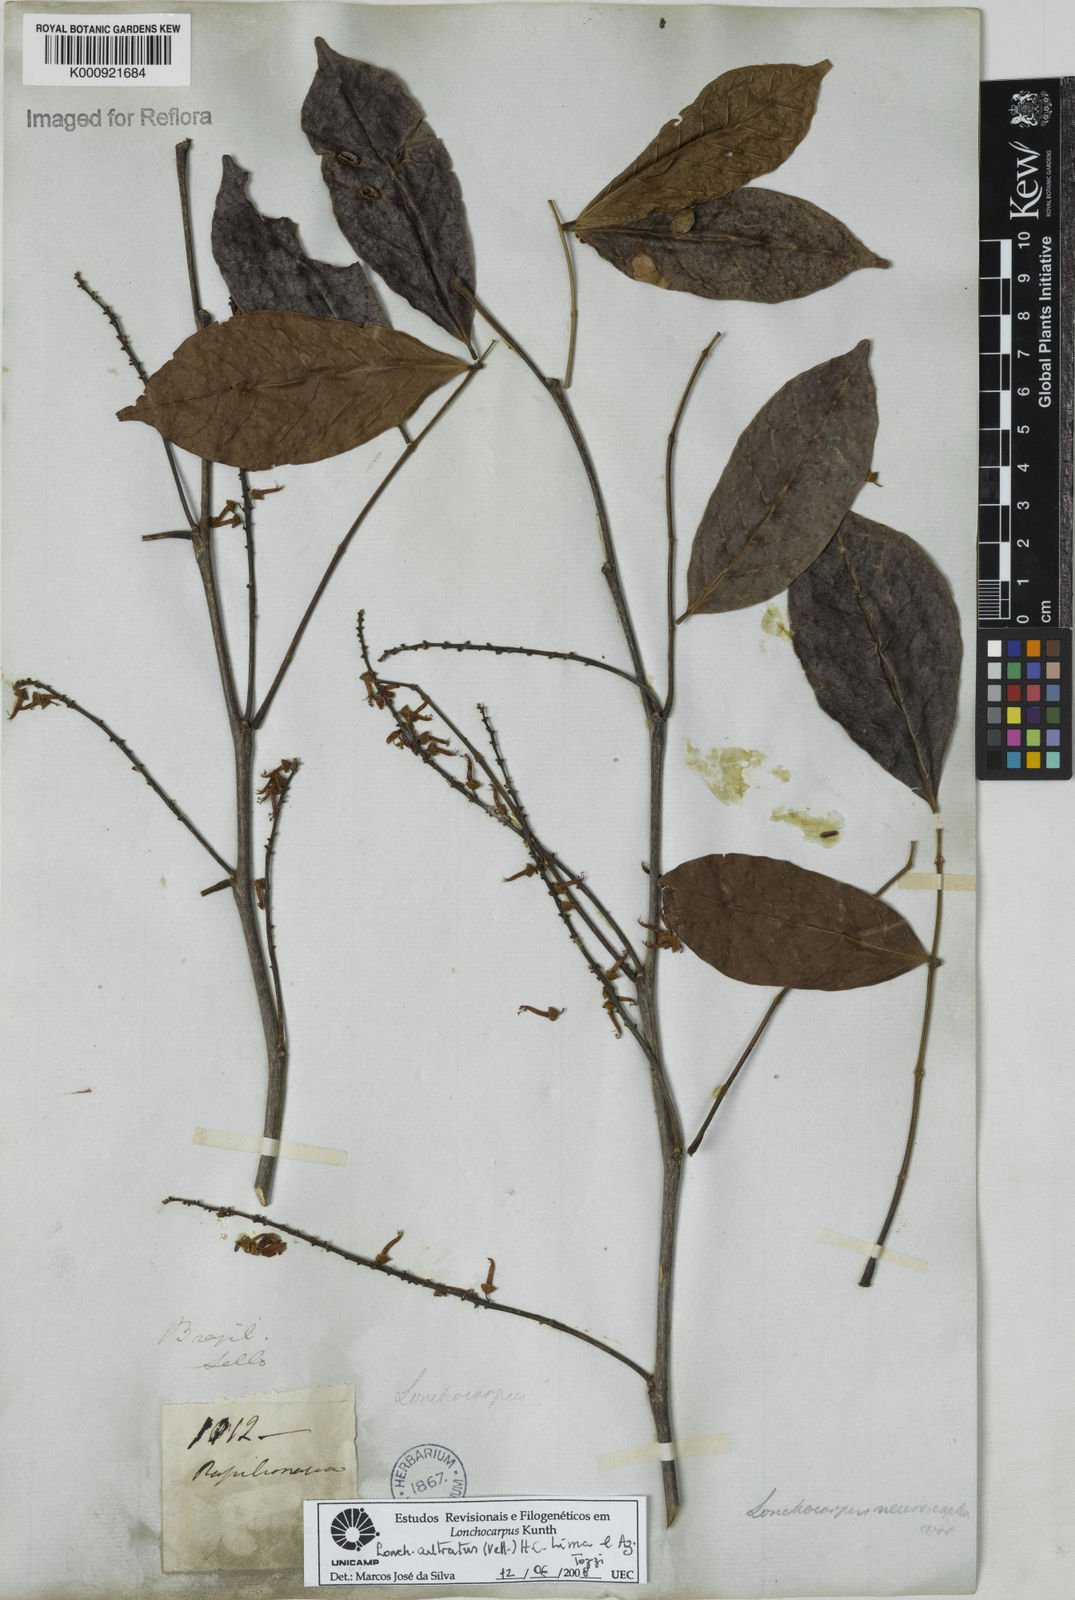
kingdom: Plantae
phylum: Tracheophyta
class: Magnoliopsida
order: Fabales
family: Fabaceae
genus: Lonchocarpus
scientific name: Lonchocarpus cultratus
